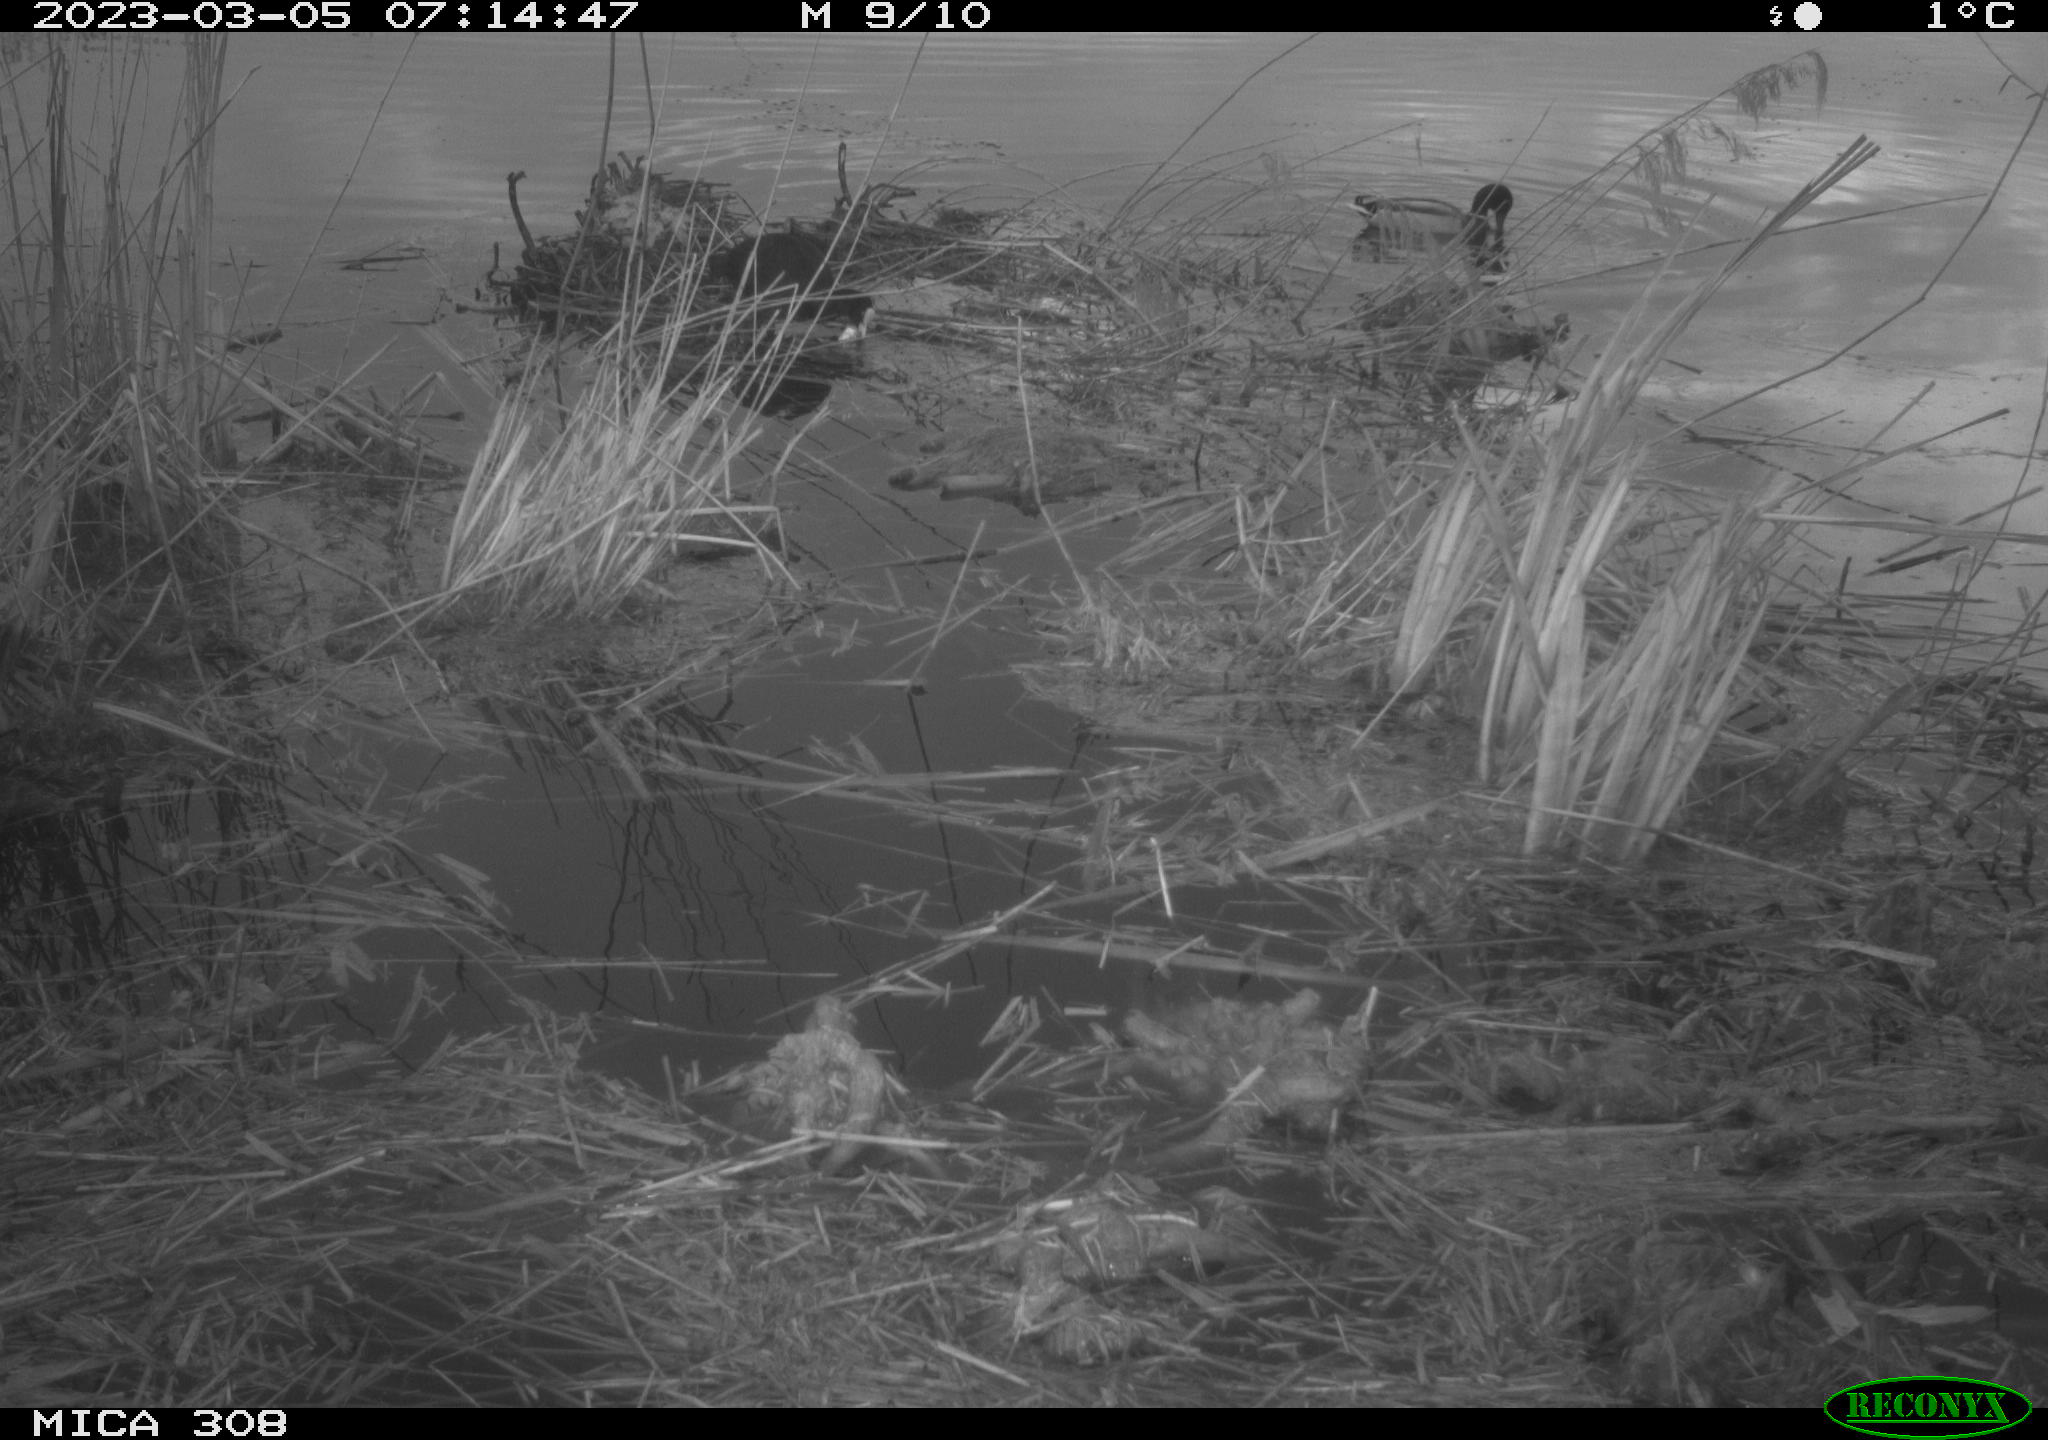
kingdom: Animalia
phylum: Chordata
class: Aves
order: Gruiformes
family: Rallidae
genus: Gallinula
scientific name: Gallinula chloropus
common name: Common moorhen
